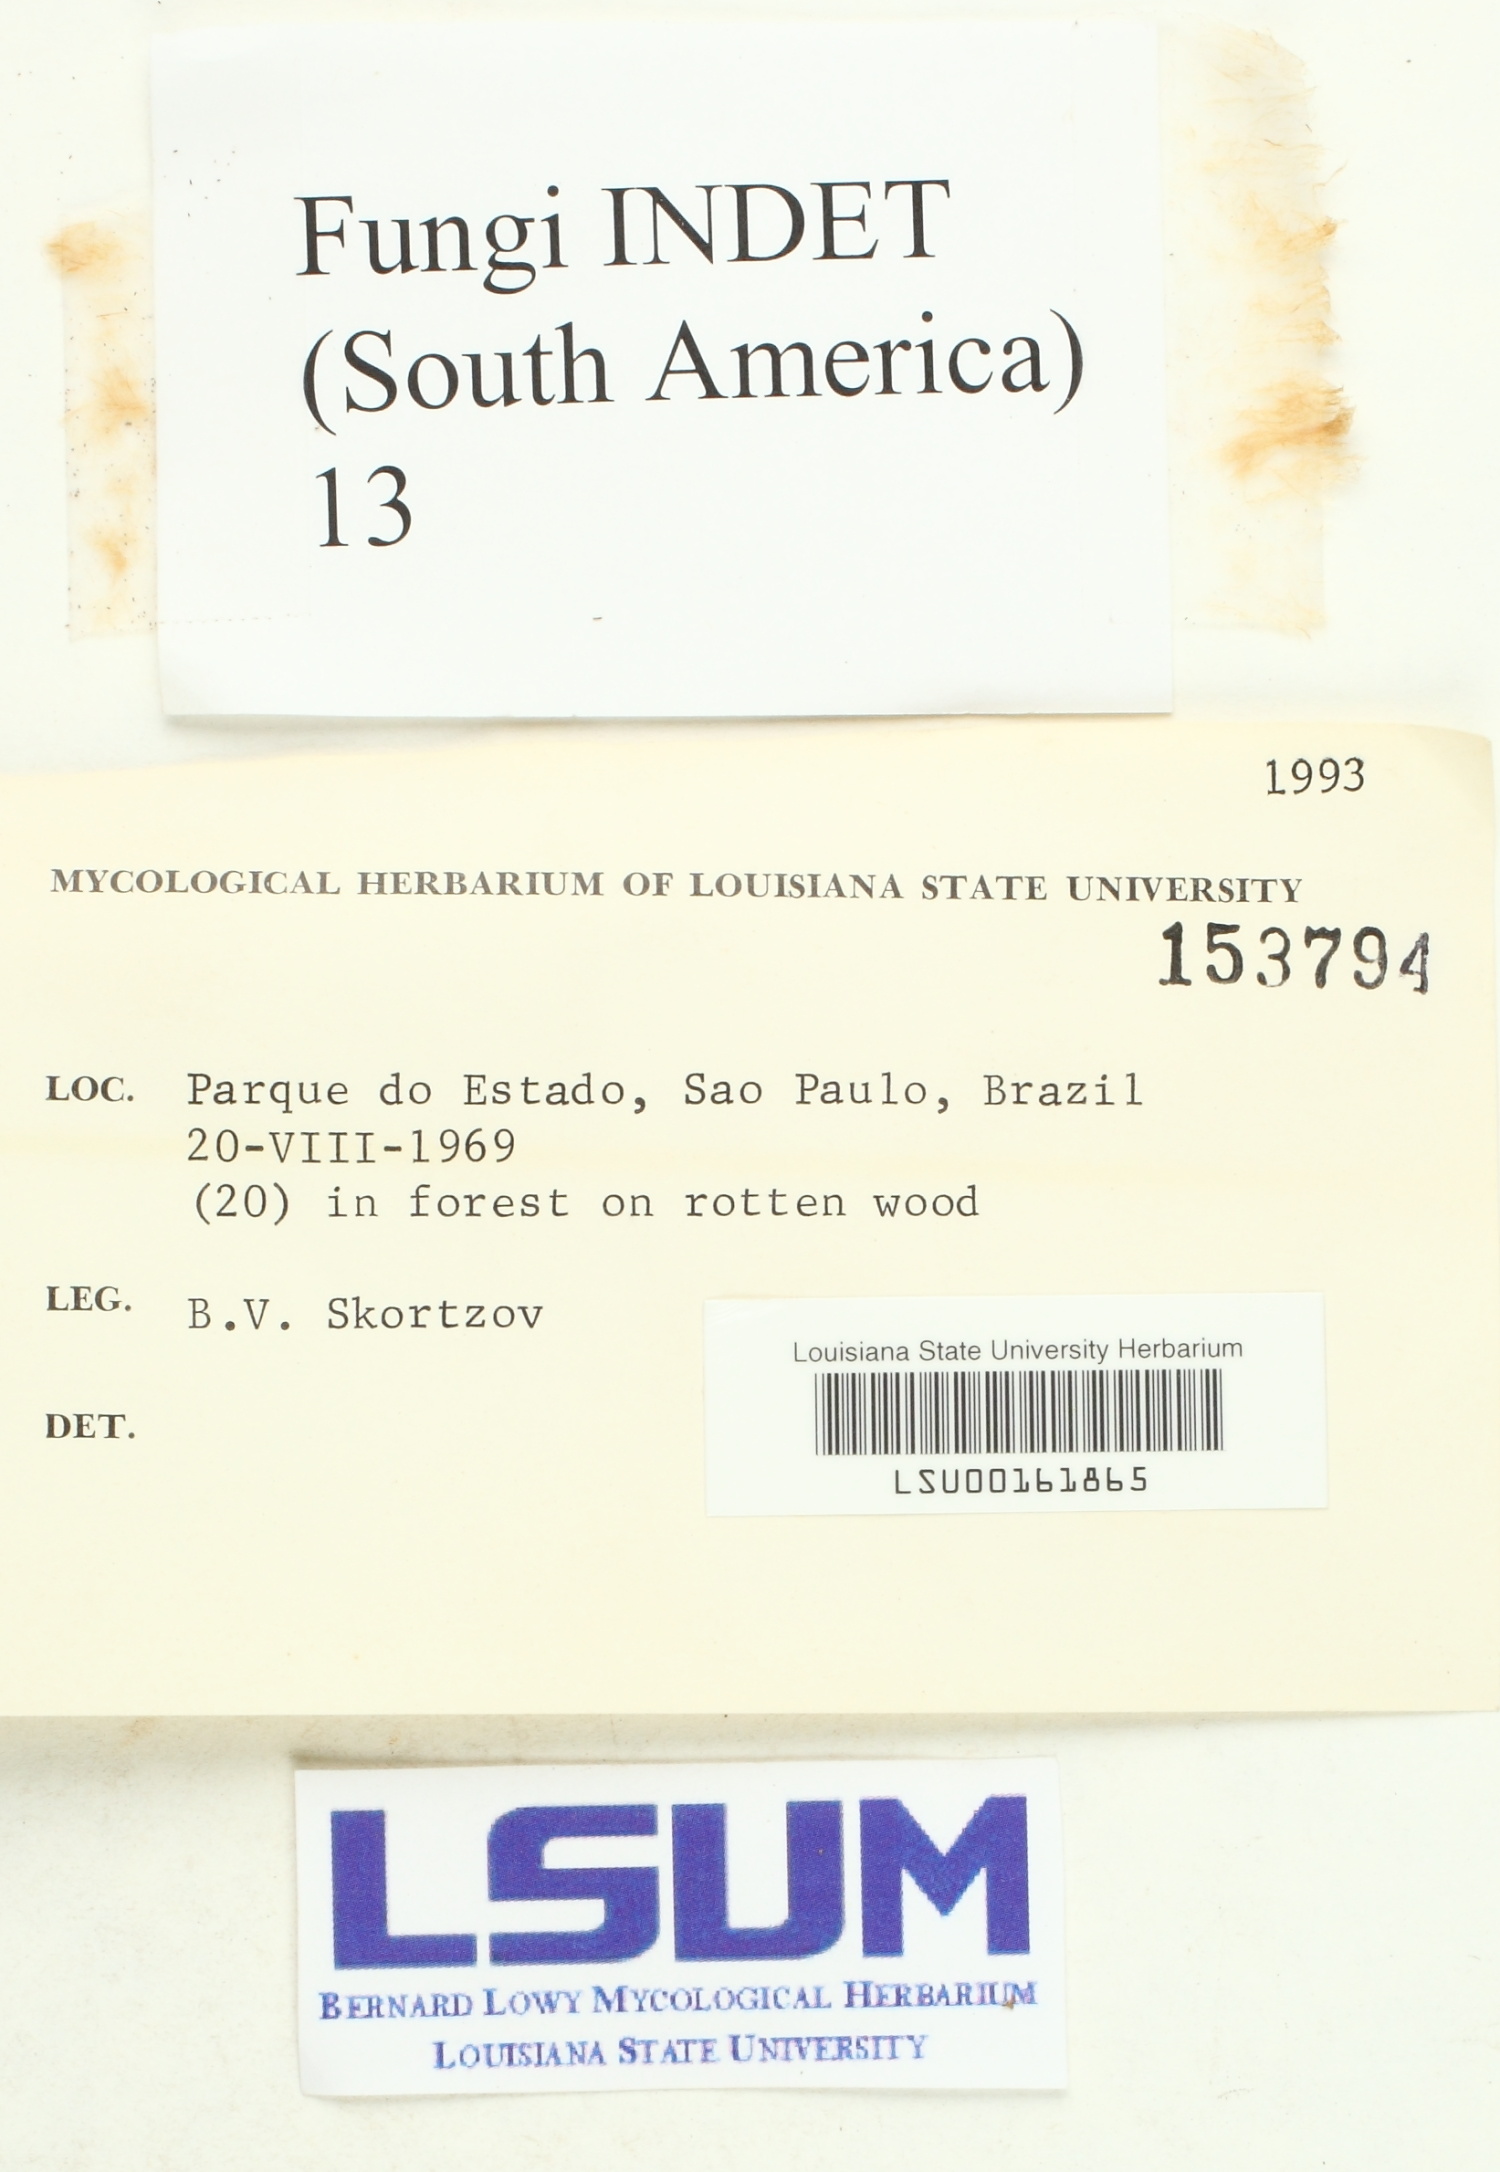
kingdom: Fungi
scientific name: Fungi
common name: Fungi
